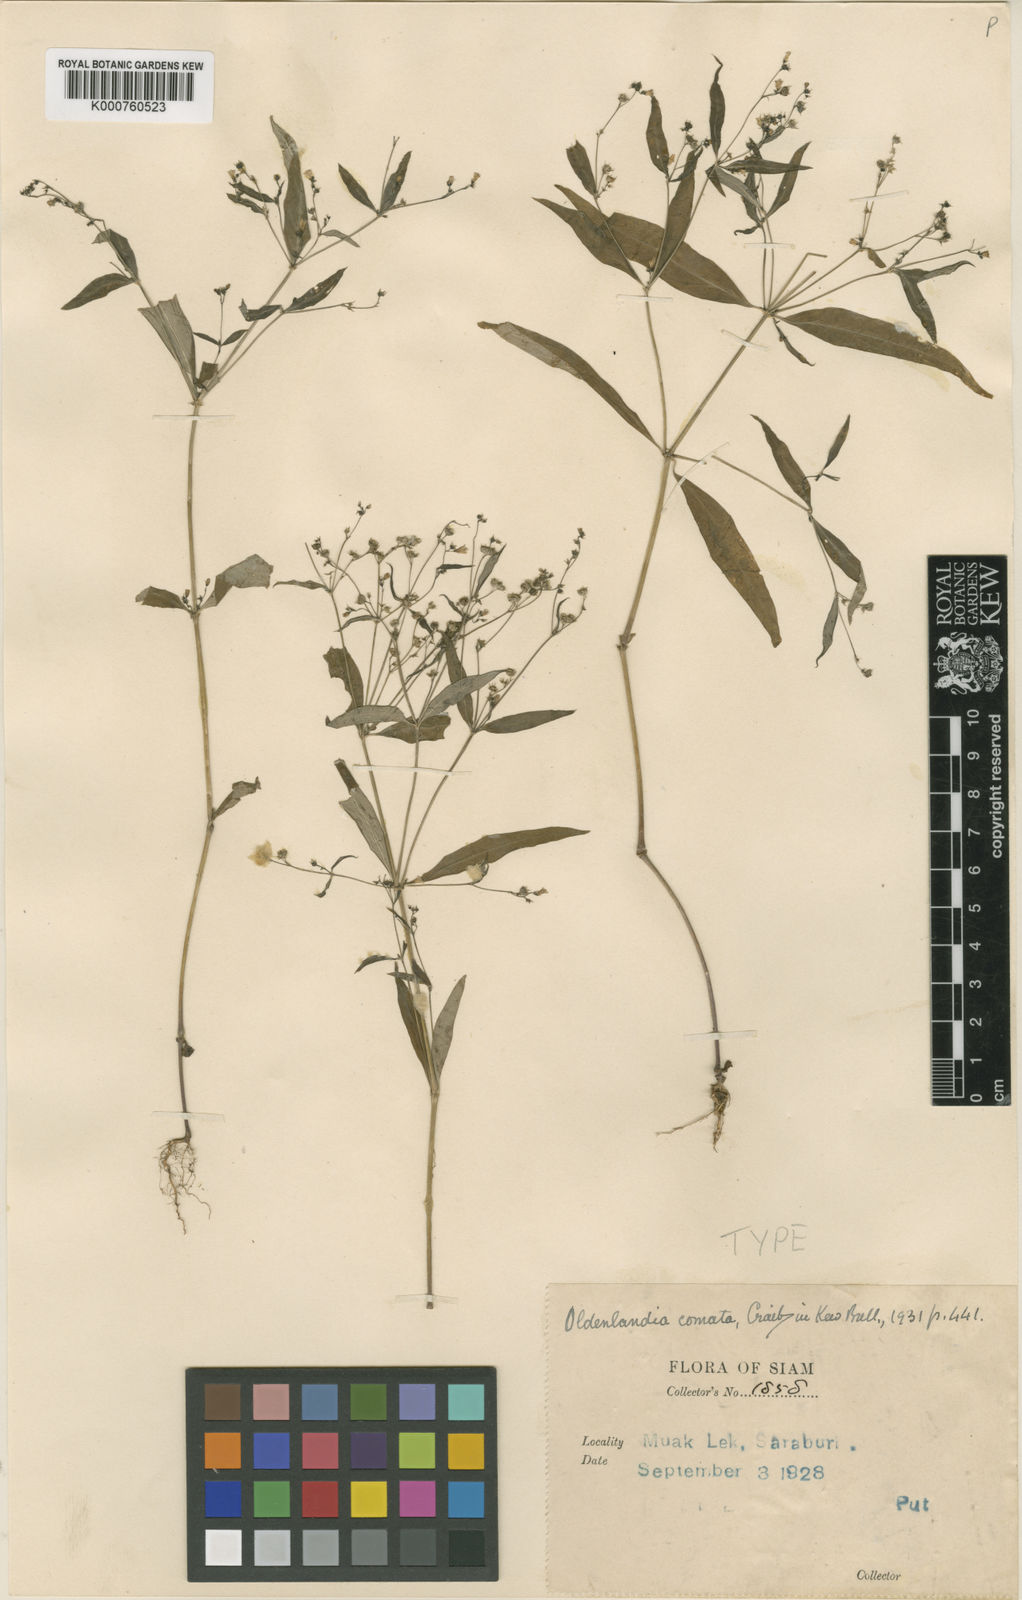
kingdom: Plantae
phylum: Tracheophyta
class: Magnoliopsida
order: Gentianales
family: Rubiaceae
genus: Oldenlandia
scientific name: Oldenlandia comata
